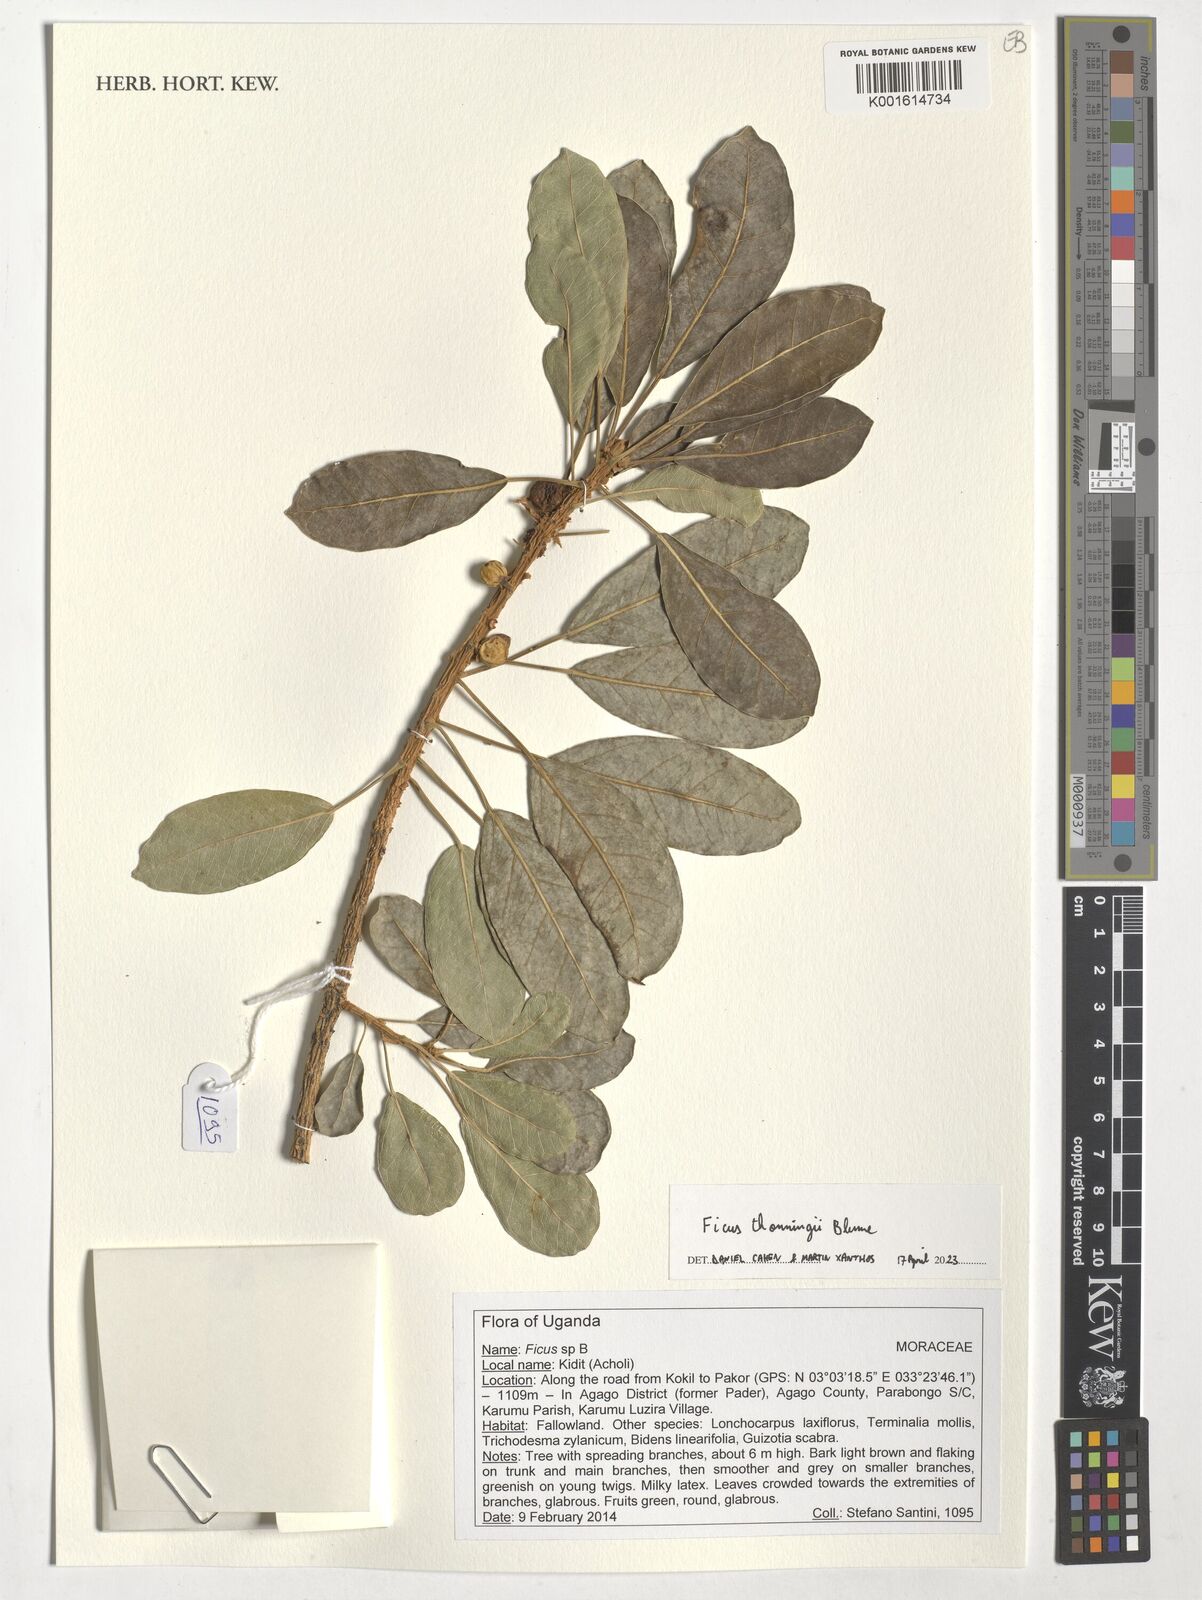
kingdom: Plantae
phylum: Tracheophyta
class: Magnoliopsida
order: Rosales
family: Moraceae
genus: Ficus
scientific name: Ficus thonningii
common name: Fig
